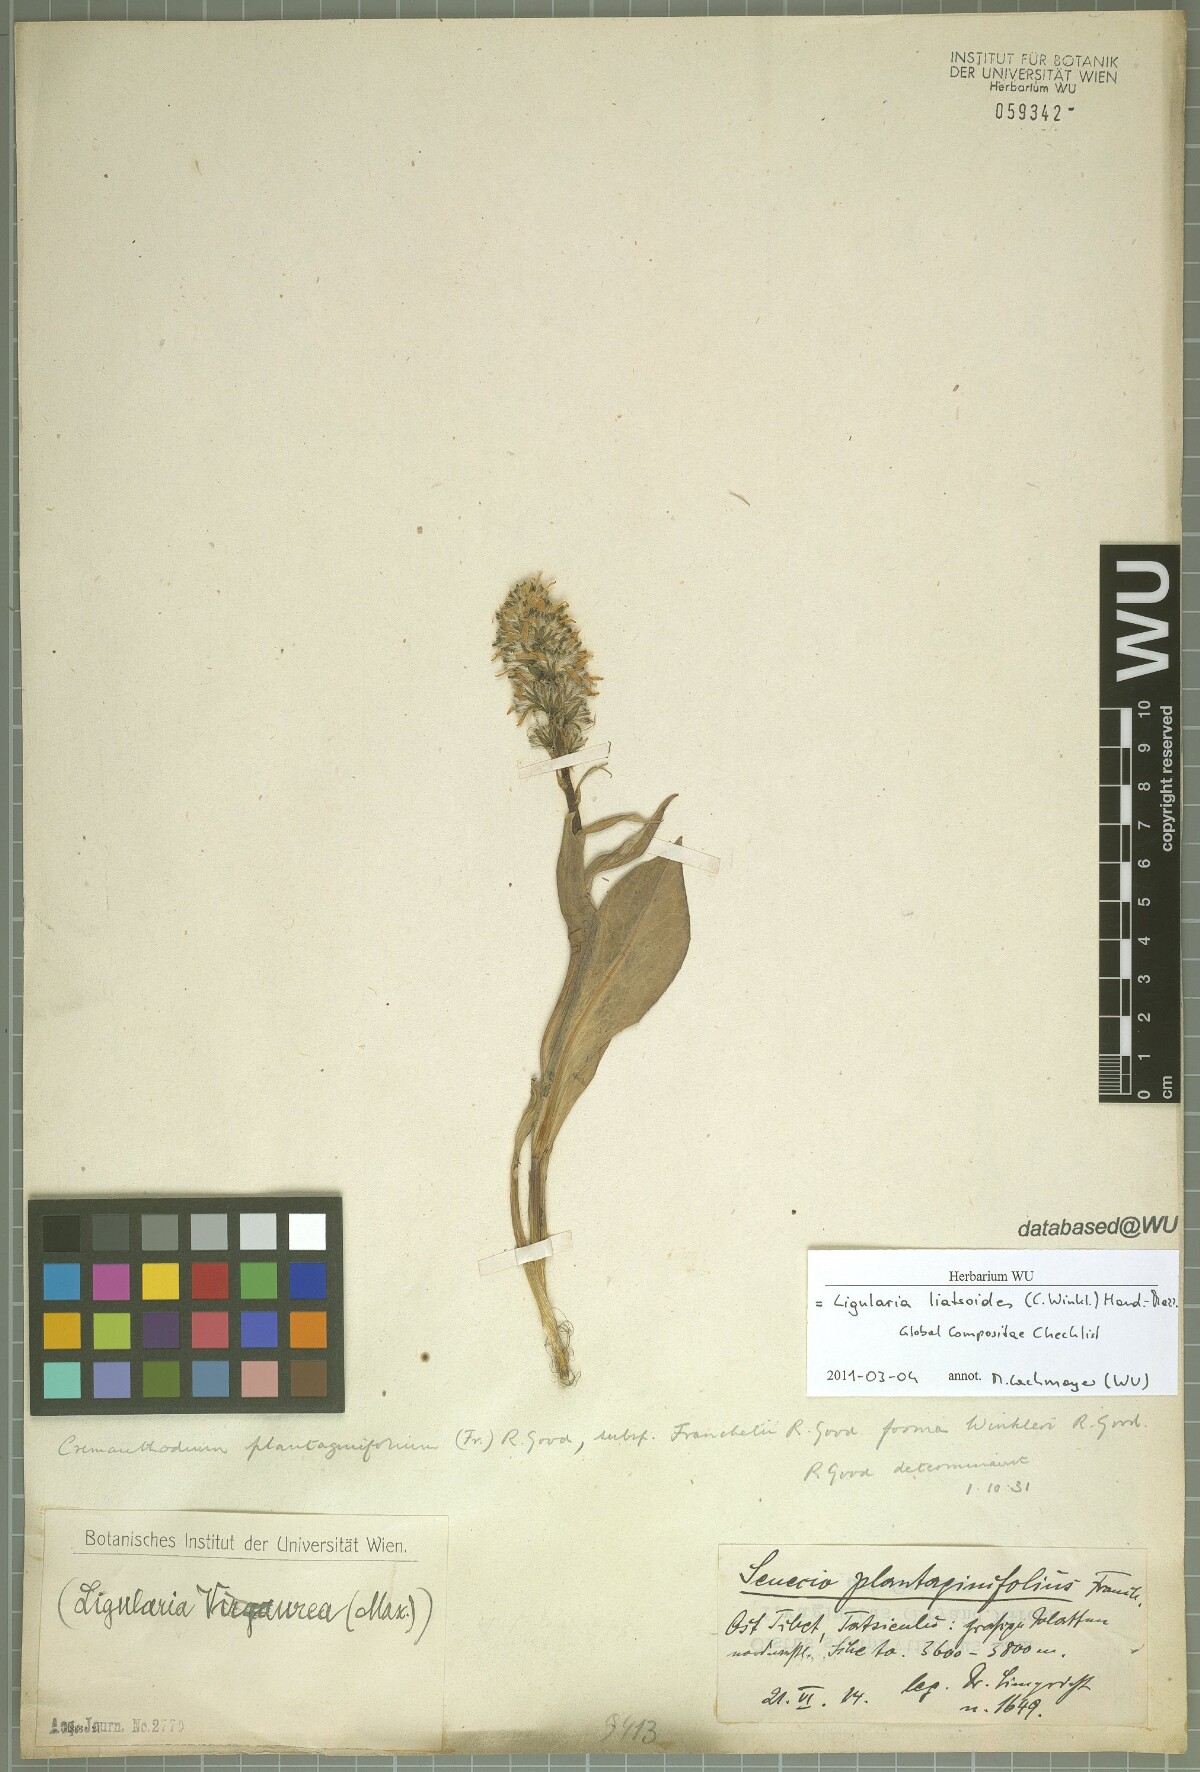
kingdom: Plantae
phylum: Tracheophyta
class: Magnoliopsida
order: Asterales
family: Asteraceae
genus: Ligularia
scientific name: Ligularia virgaurea
